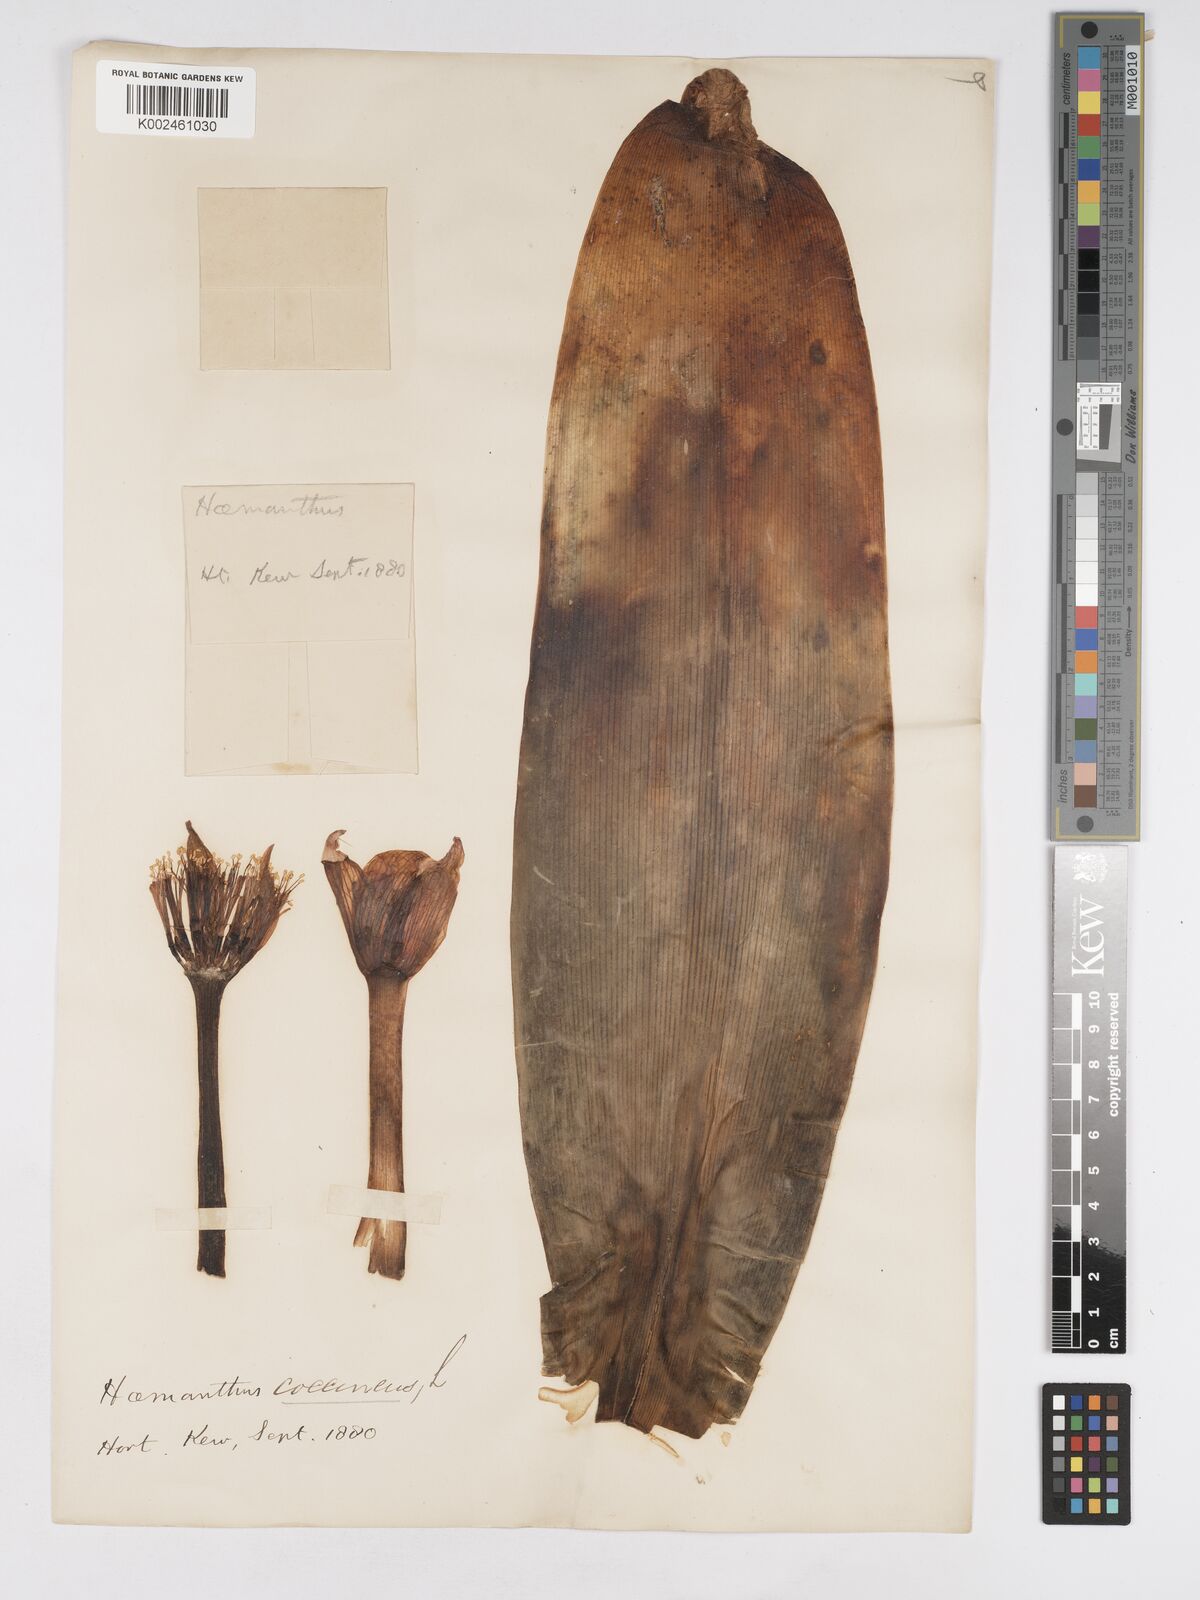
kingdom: Plantae
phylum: Tracheophyta
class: Liliopsida
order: Asparagales
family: Amaryllidaceae
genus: Haemanthus
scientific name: Haemanthus coccineus
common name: Cape-tulip
